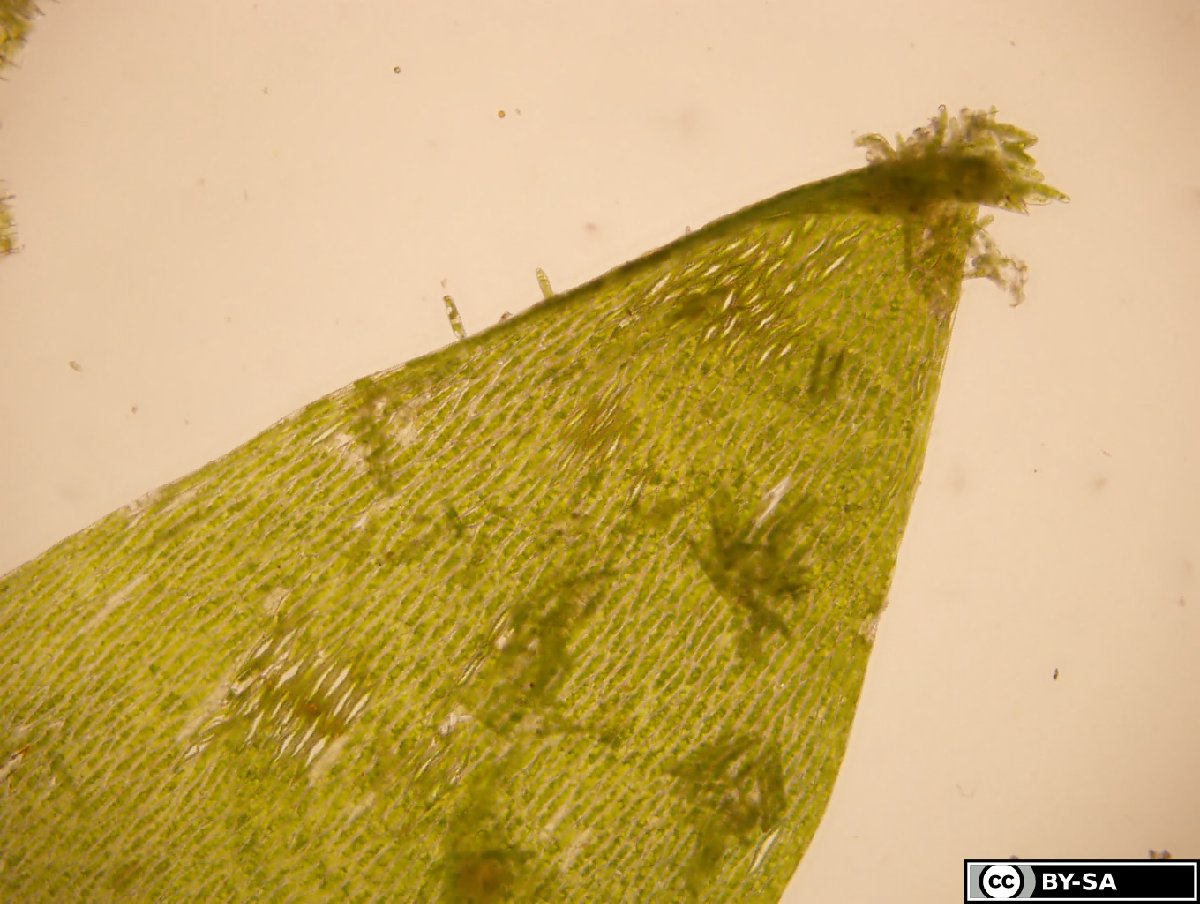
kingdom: Plantae
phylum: Bryophyta
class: Bryopsida
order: Hypnales
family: Plagiotheciaceae
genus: Plagiothecium
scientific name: Plagiothecium nemorale
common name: Woodsy silk-moss
